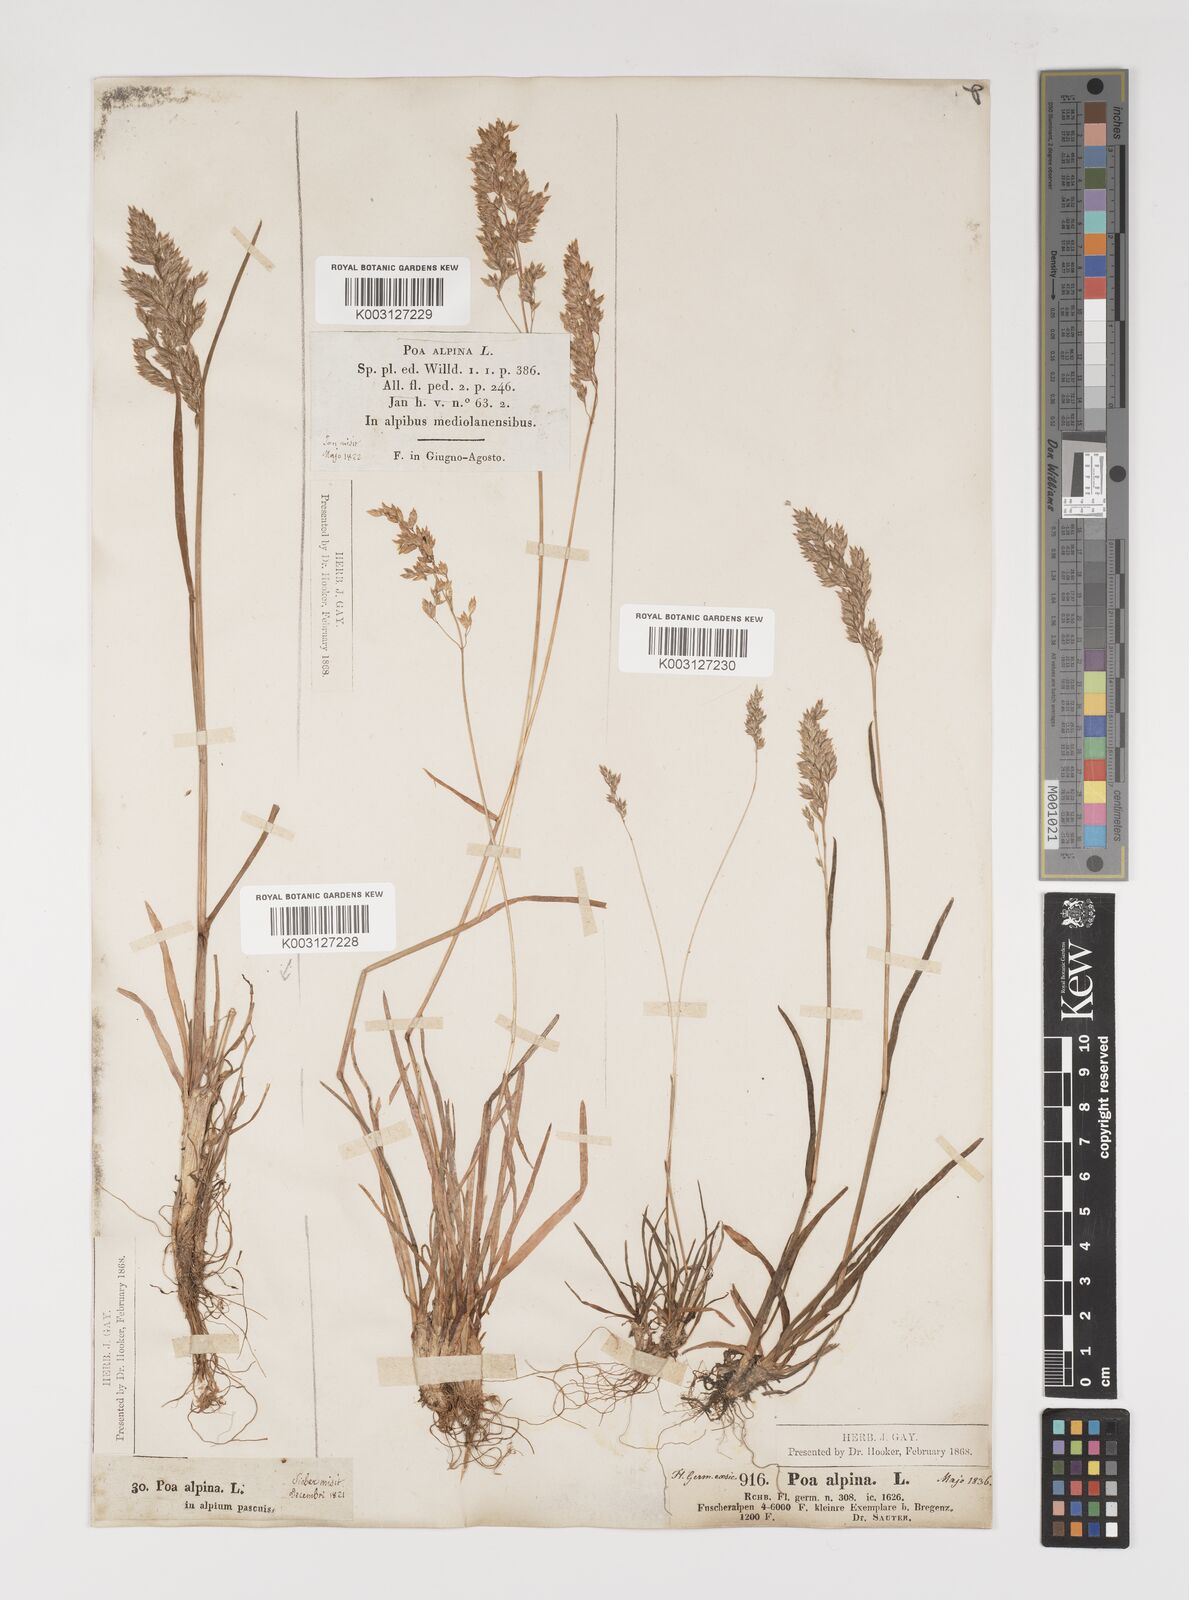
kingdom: Plantae
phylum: Tracheophyta
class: Liliopsida
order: Poales
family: Poaceae
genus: Poa
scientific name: Poa alpina
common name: Alpine bluegrass
